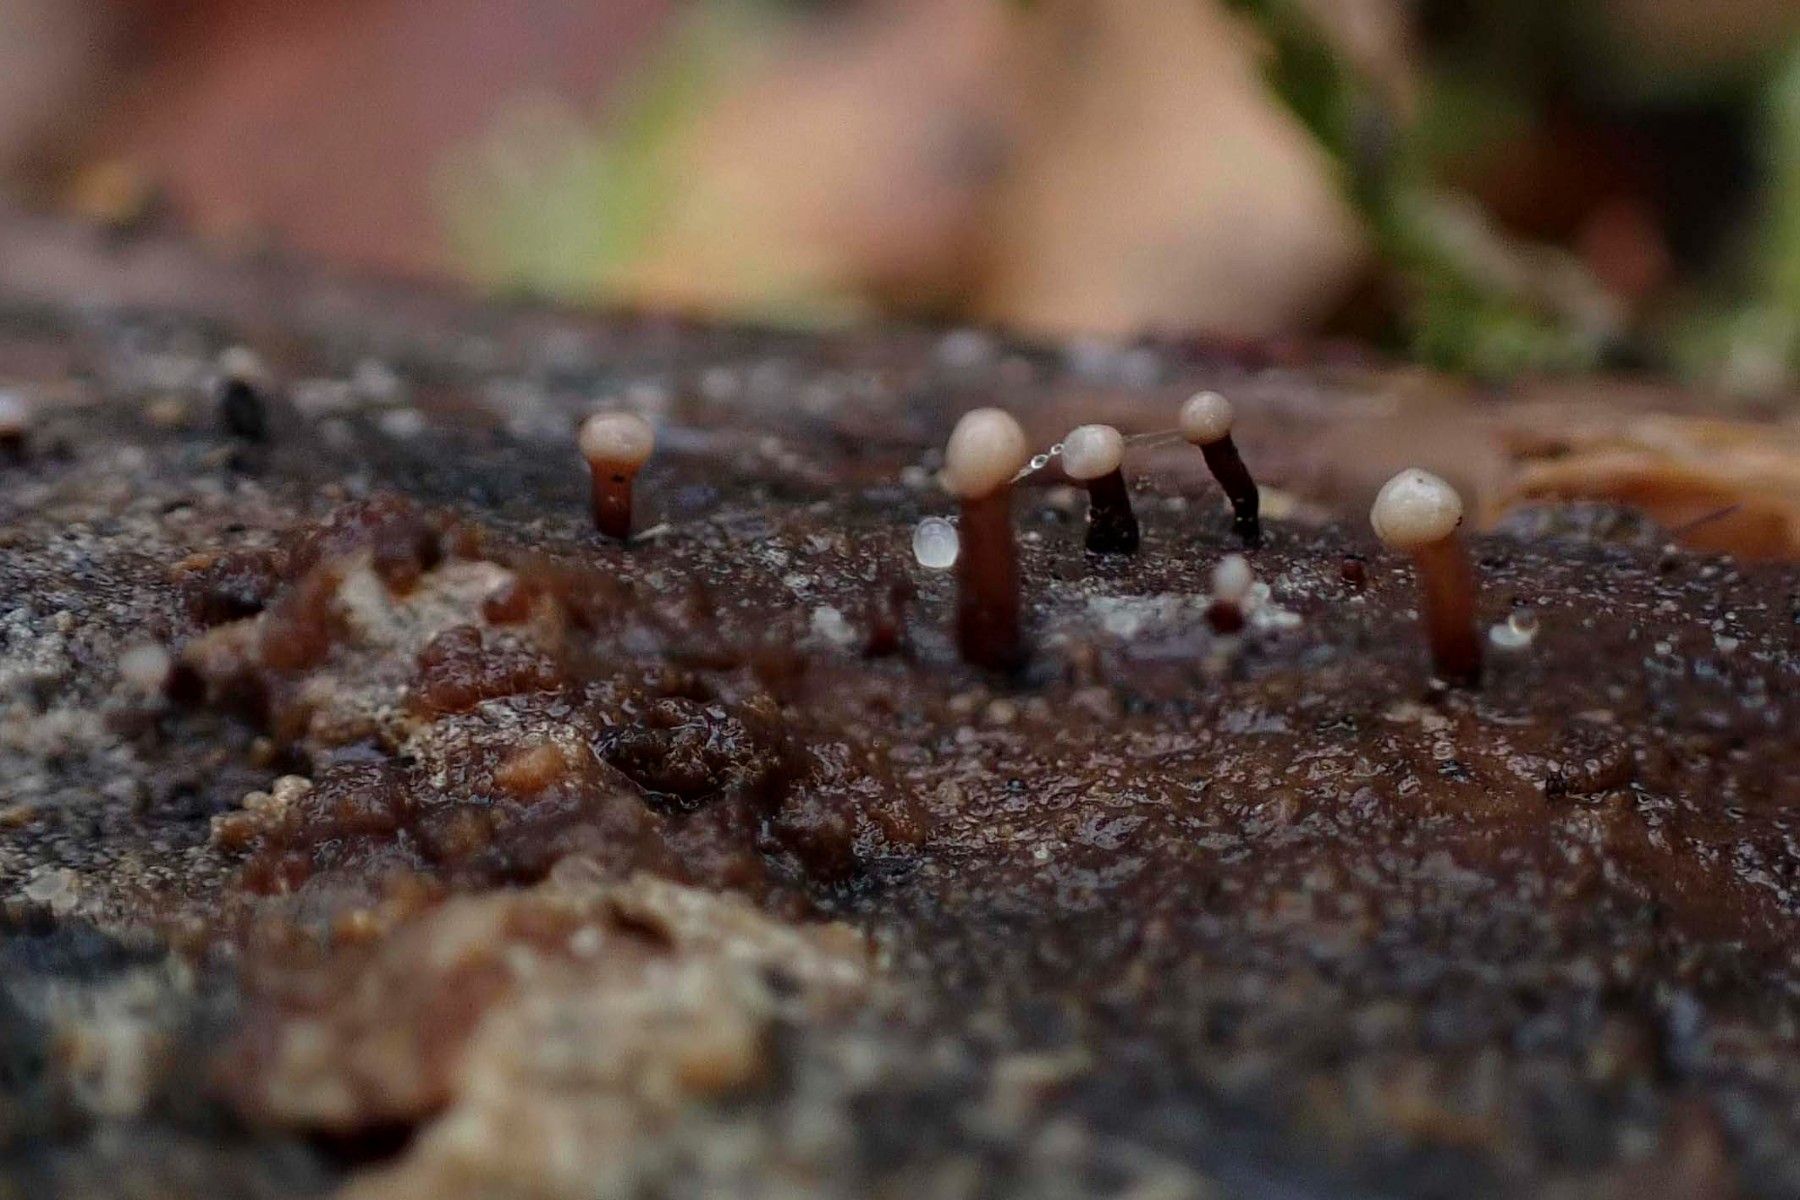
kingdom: Fungi
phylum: Ascomycota
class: Leotiomycetes
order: Helotiales
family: Gelatinodiscaceae
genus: Ascocoryne
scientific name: Ascocoryne albida
